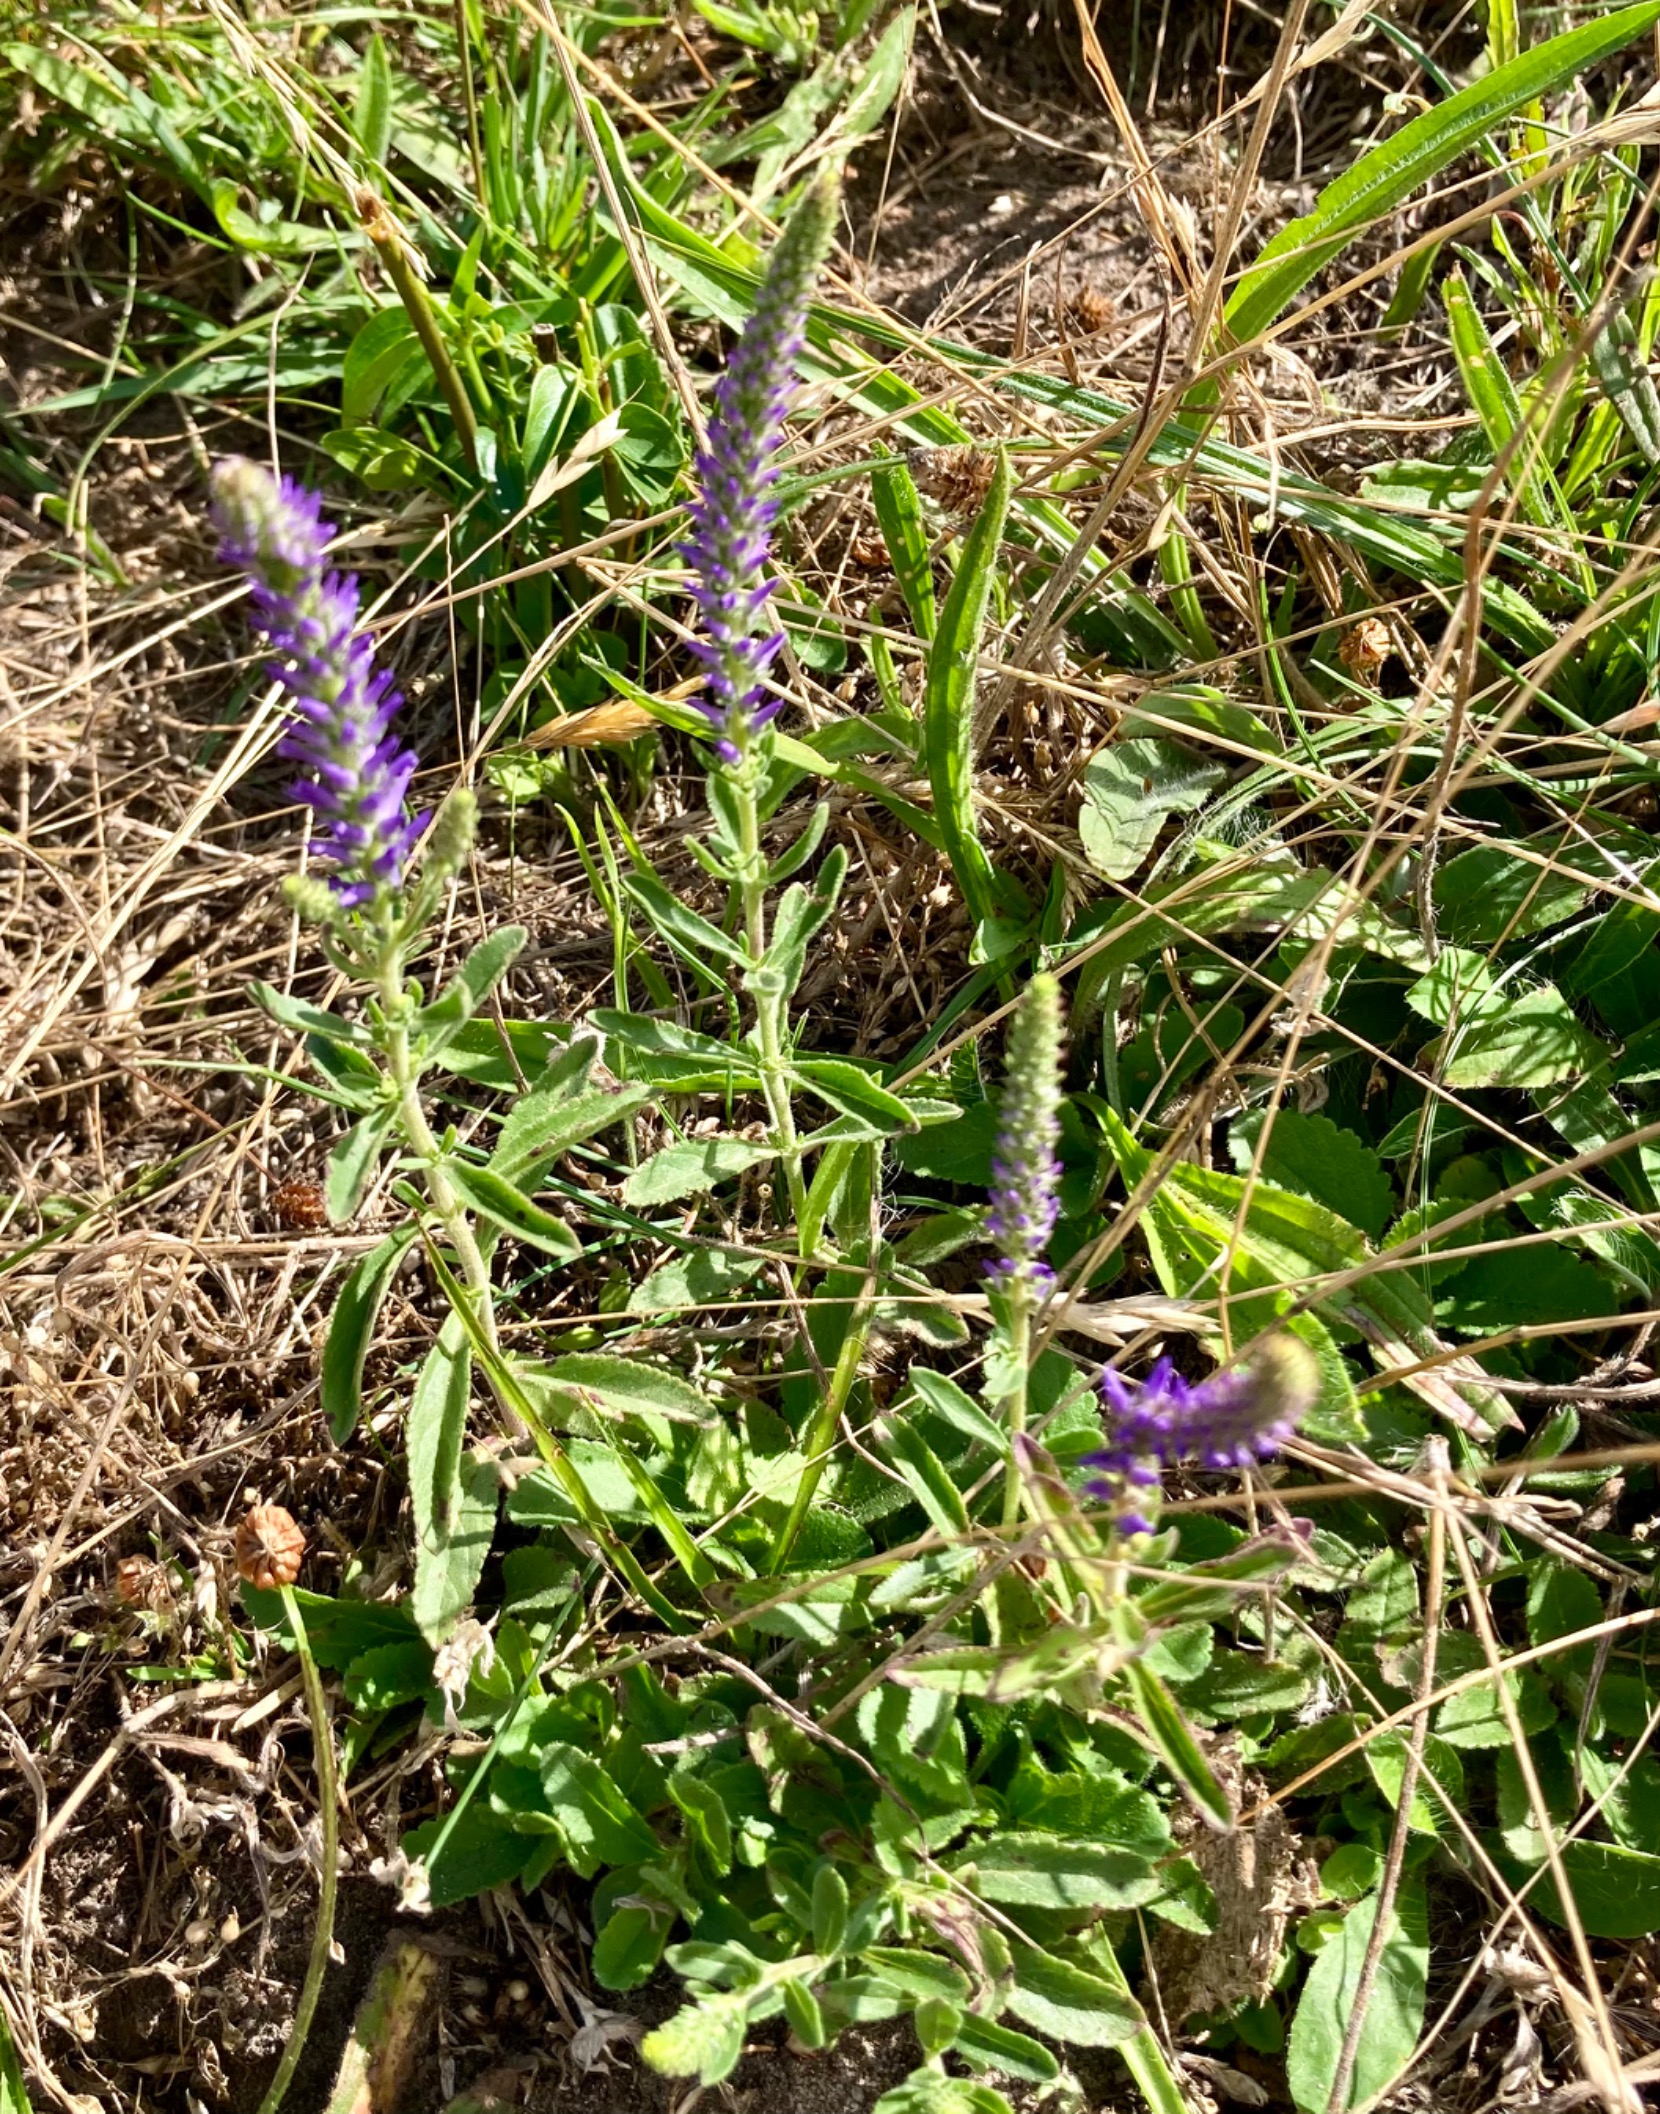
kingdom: Plantae
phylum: Tracheophyta
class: Magnoliopsida
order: Lamiales
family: Plantaginaceae
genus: Veronica
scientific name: Veronica spicata
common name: Aks-ærenpris
